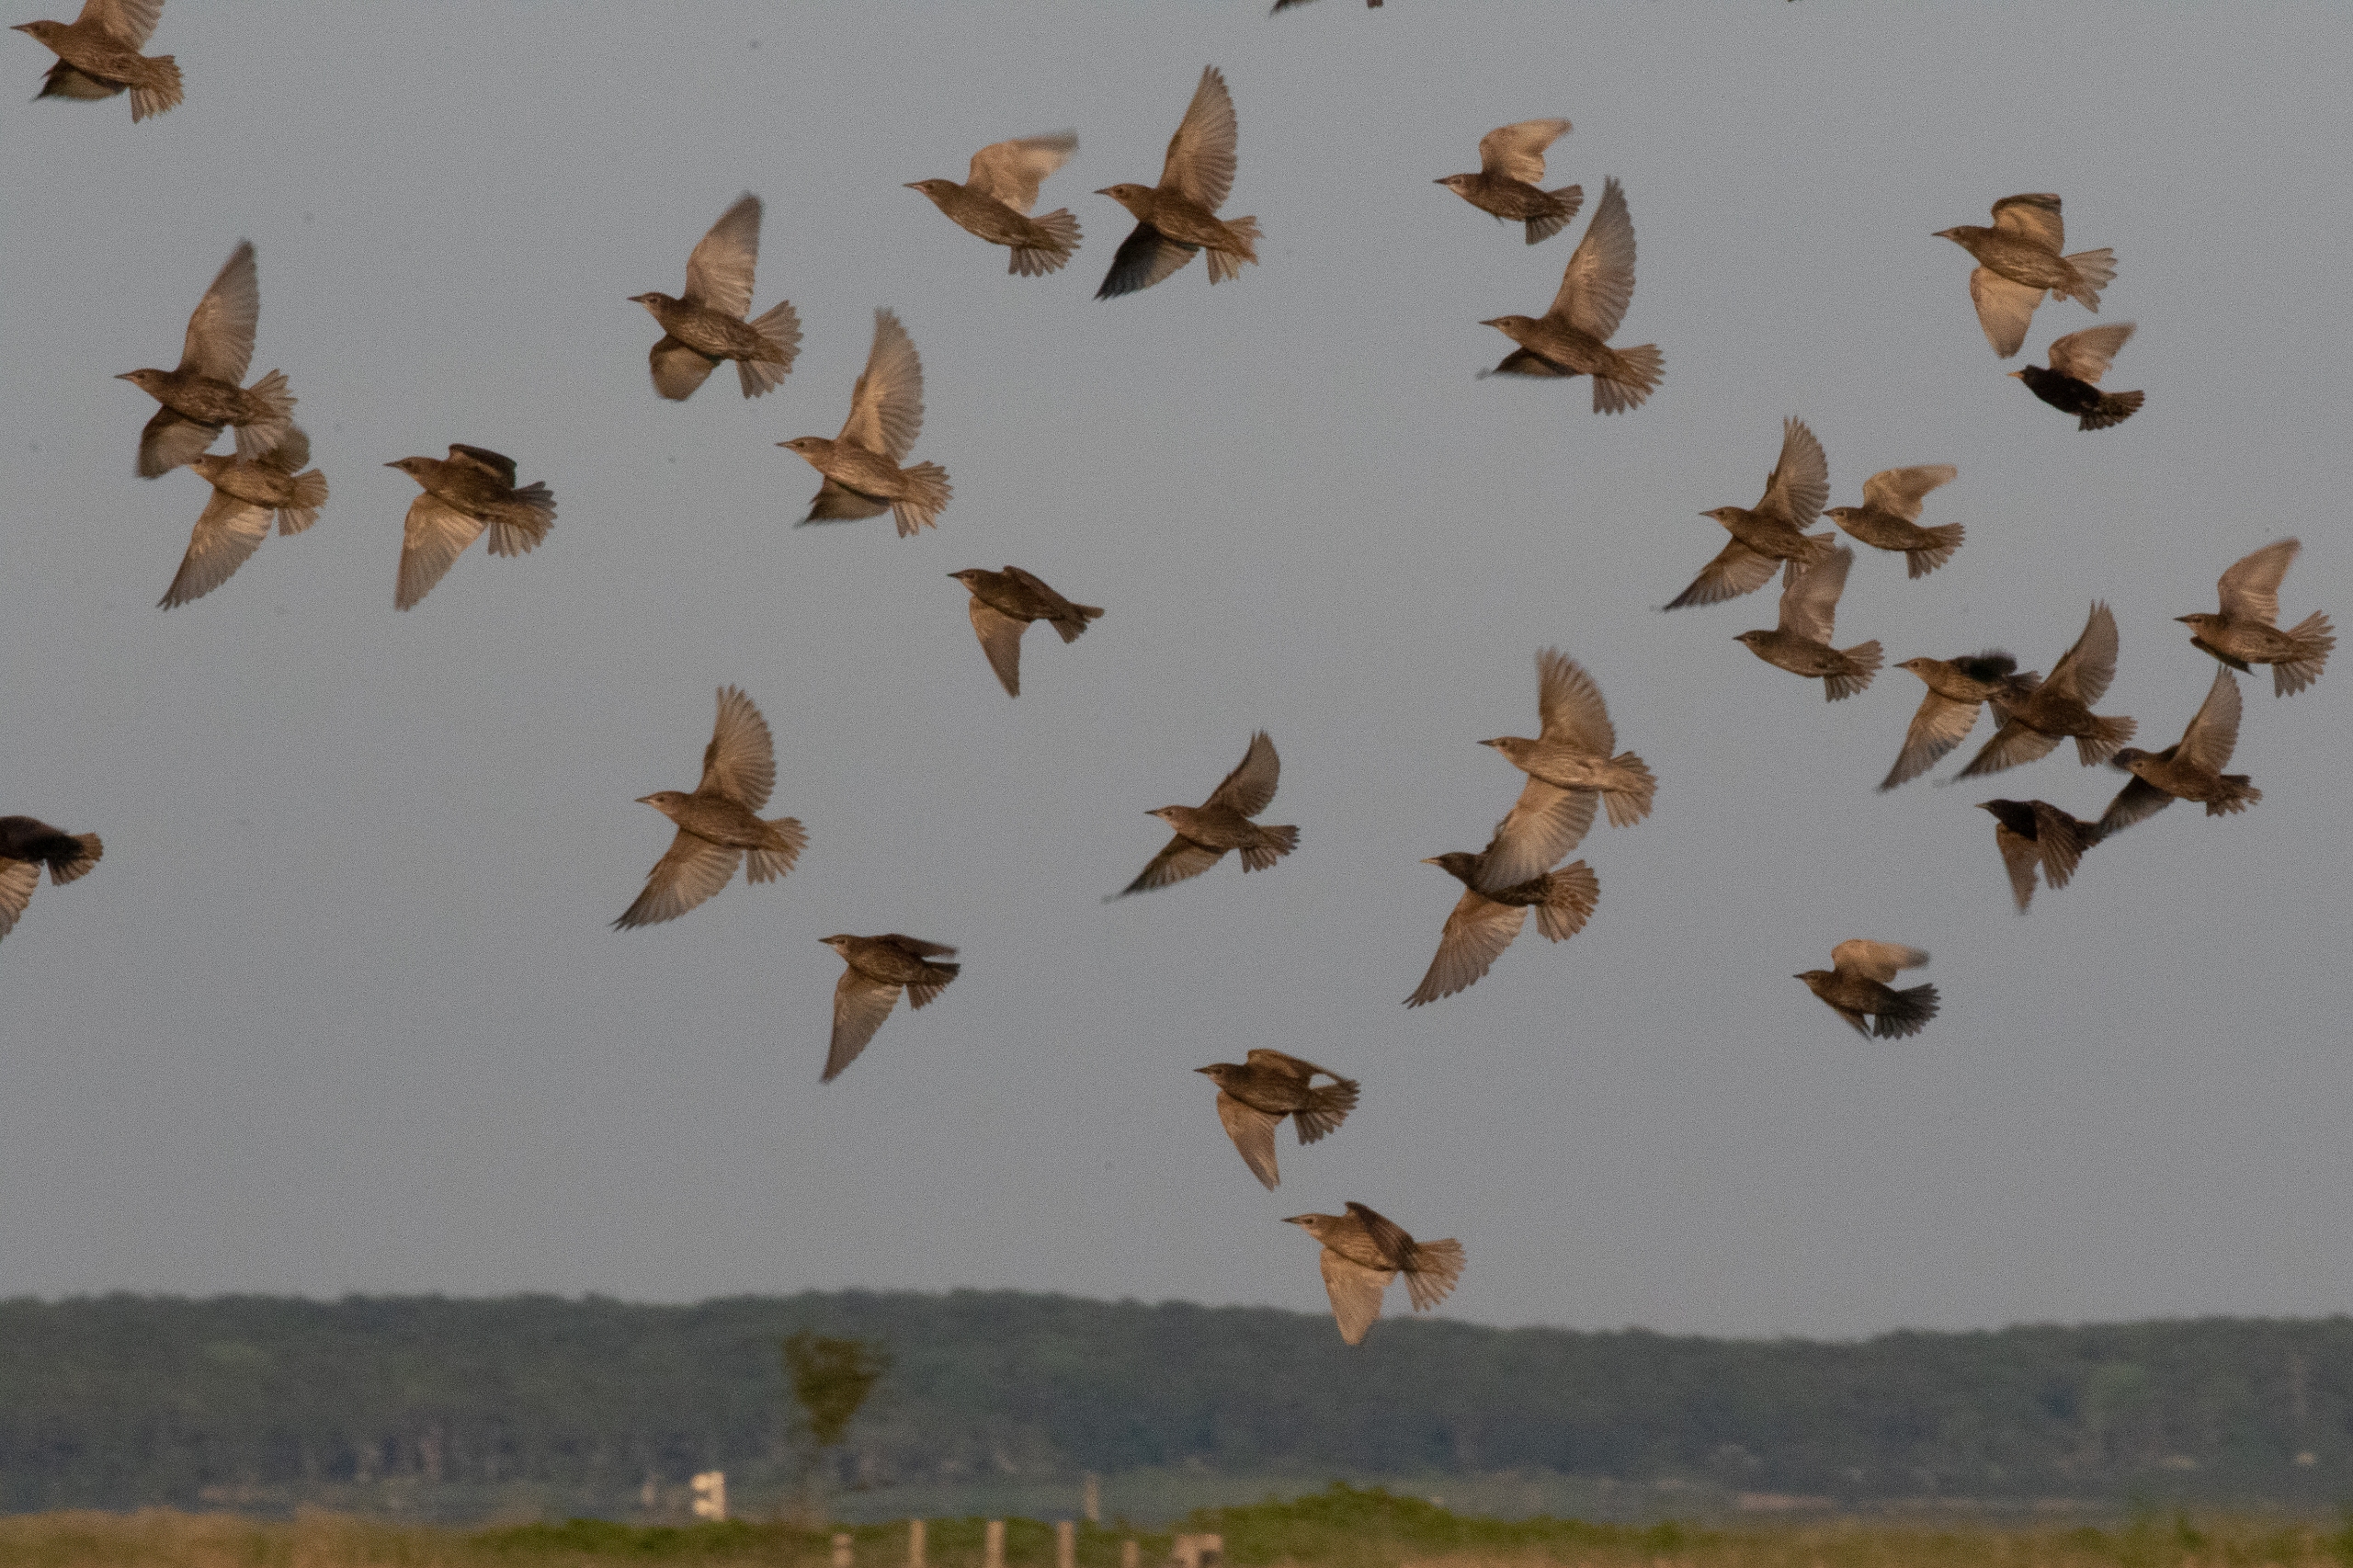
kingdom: Animalia
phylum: Chordata
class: Aves
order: Passeriformes
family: Sturnidae
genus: Sturnus
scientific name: Sturnus vulgaris
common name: Stær
